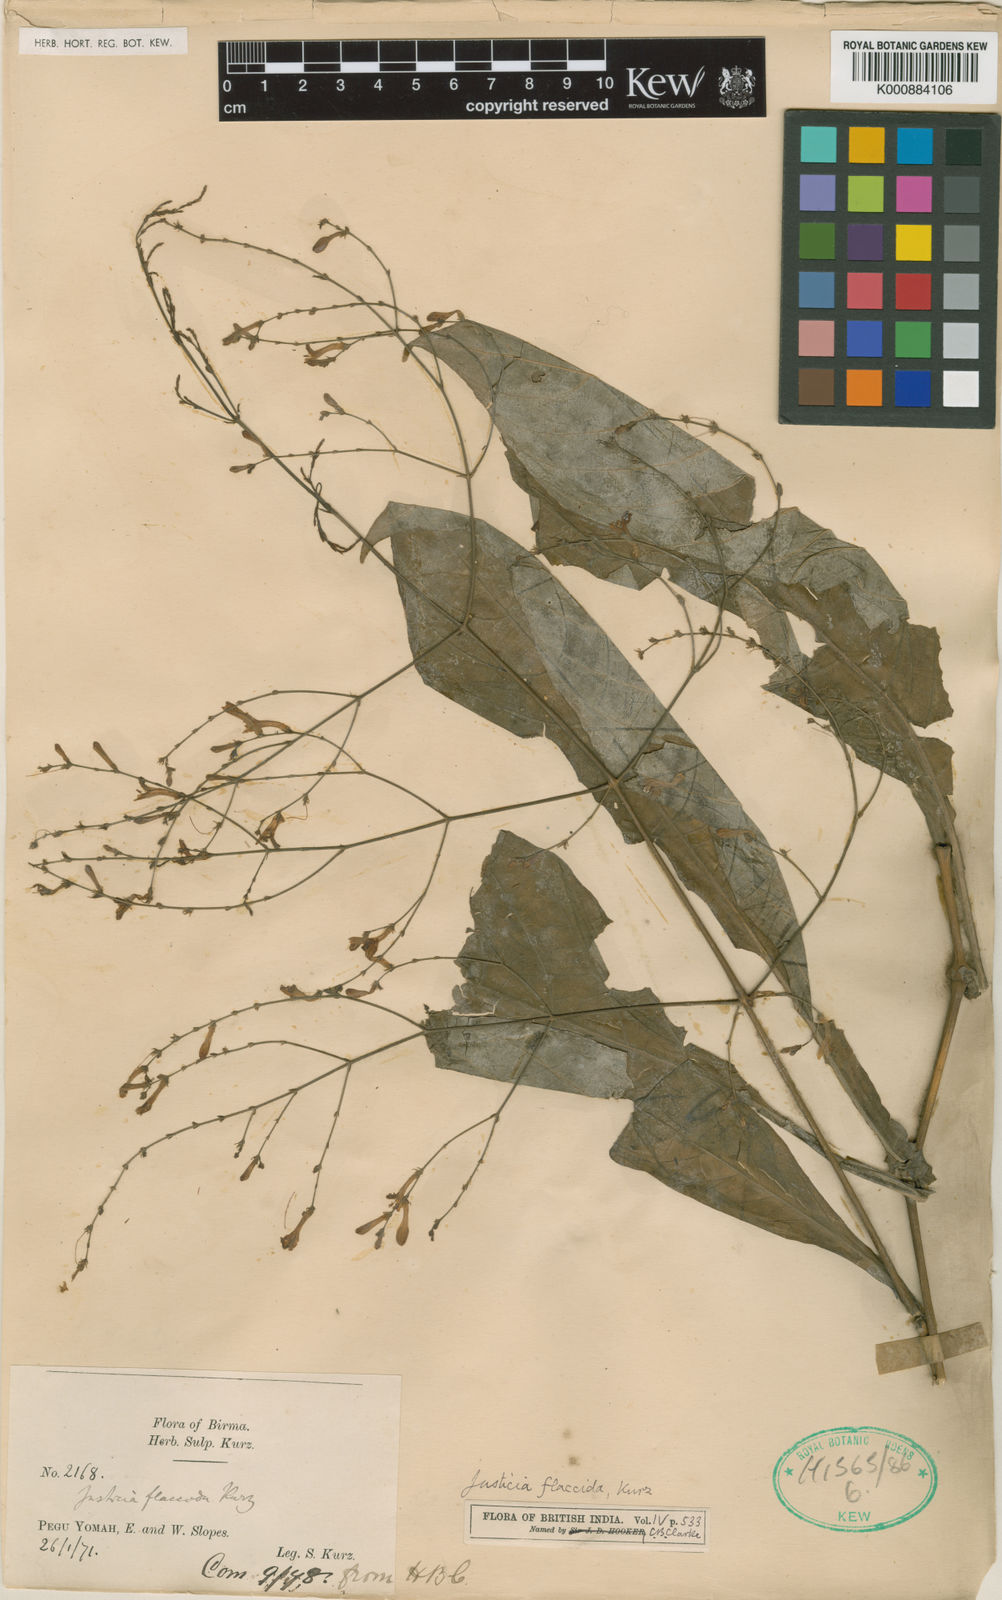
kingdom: Plantae
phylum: Tracheophyta
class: Magnoliopsida
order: Lamiales
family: Acanthaceae
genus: Justicia
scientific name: Justicia flaccida
